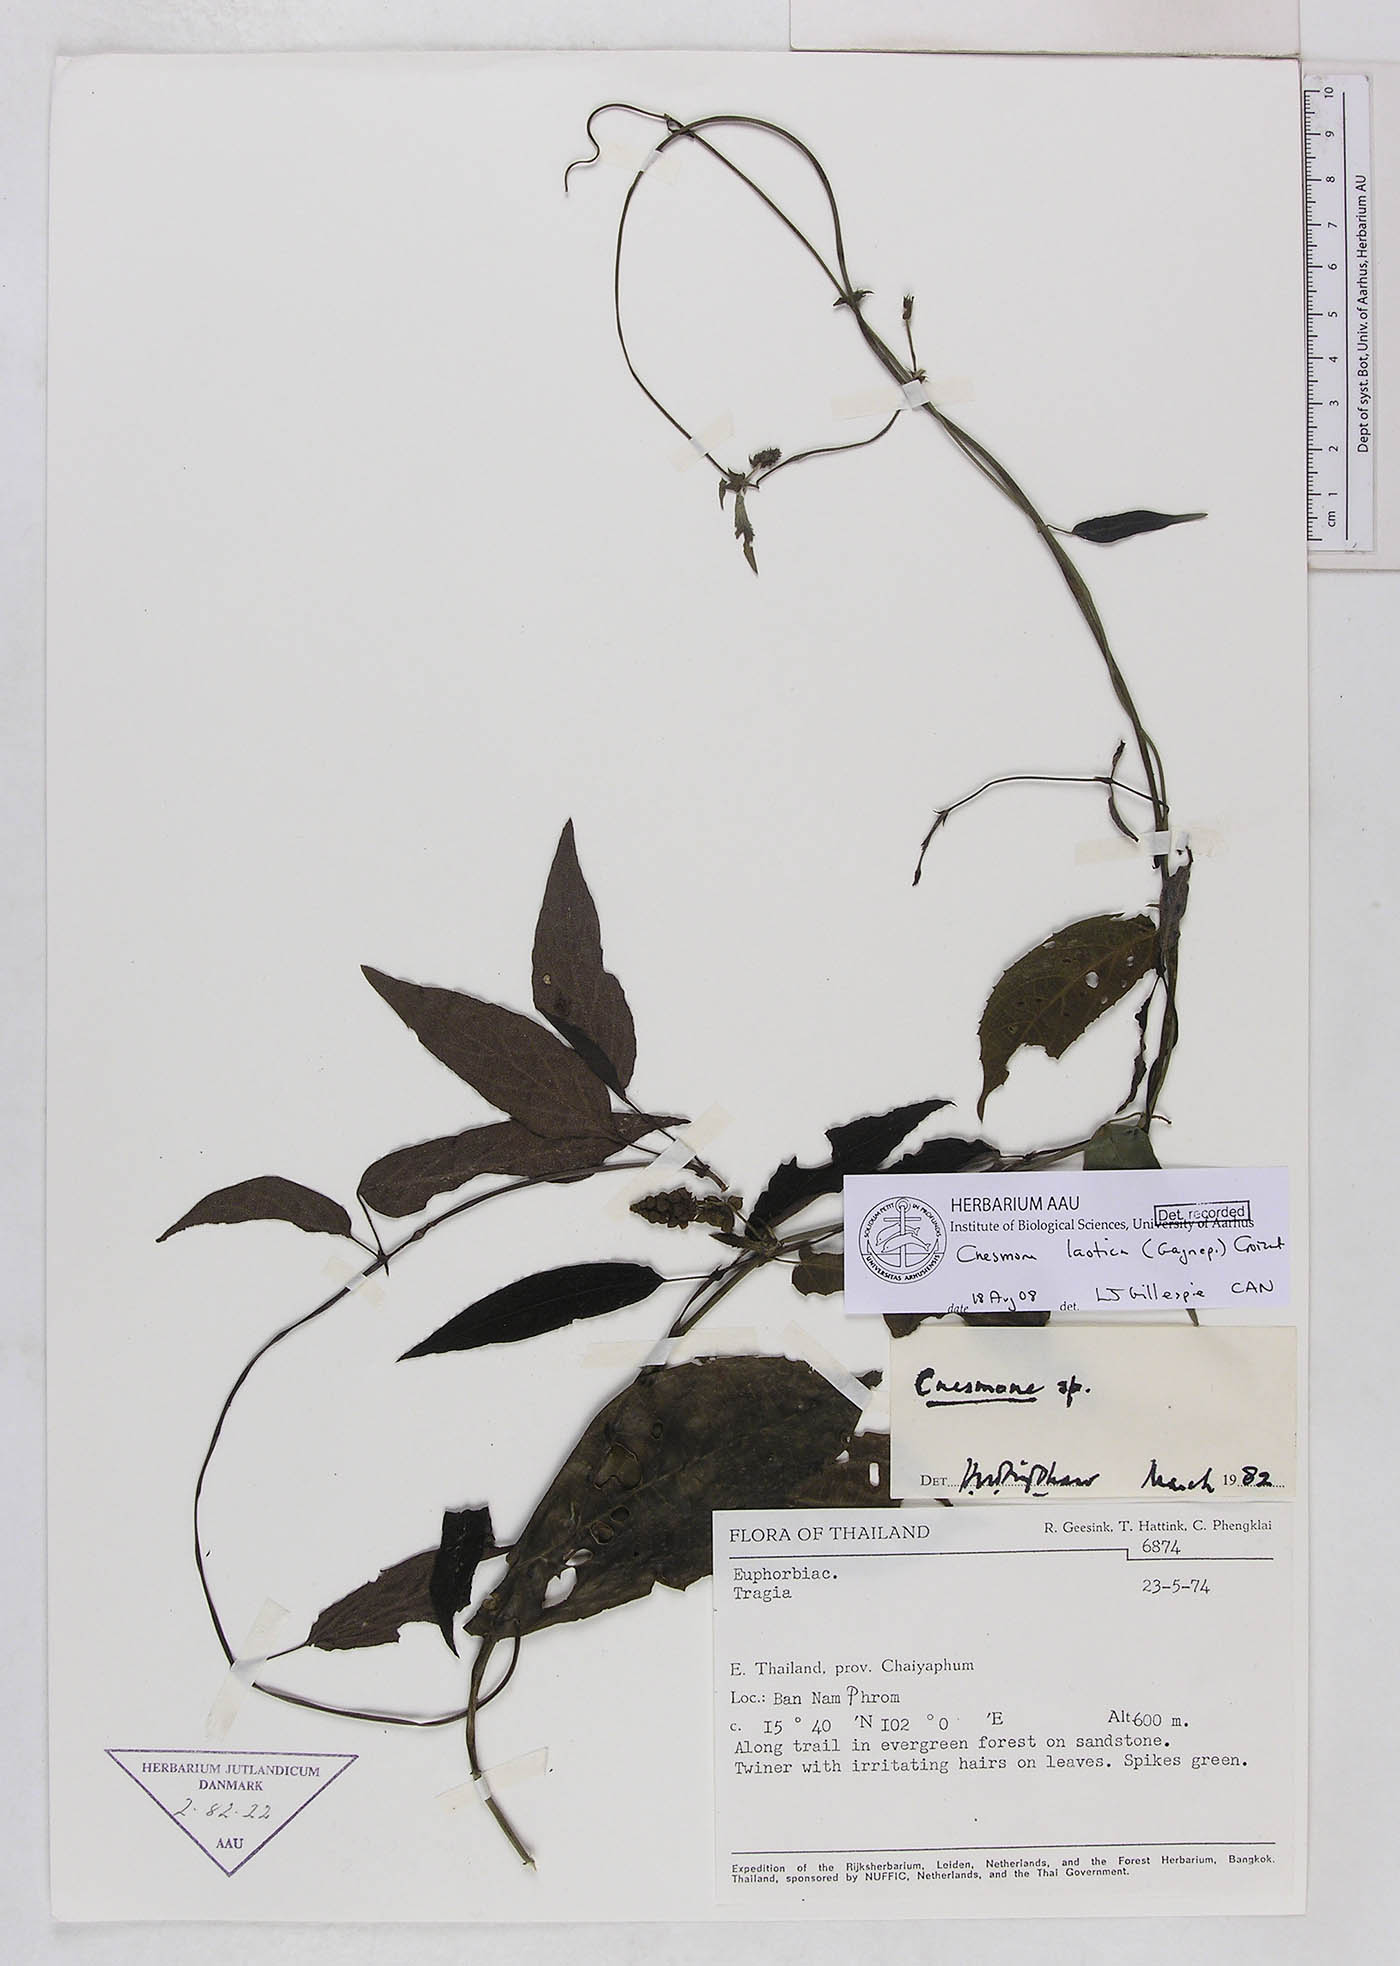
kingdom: Plantae
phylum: Tracheophyta
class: Magnoliopsida
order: Malpighiales
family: Euphorbiaceae
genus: Cnesmone
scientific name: Cnesmone laotica
